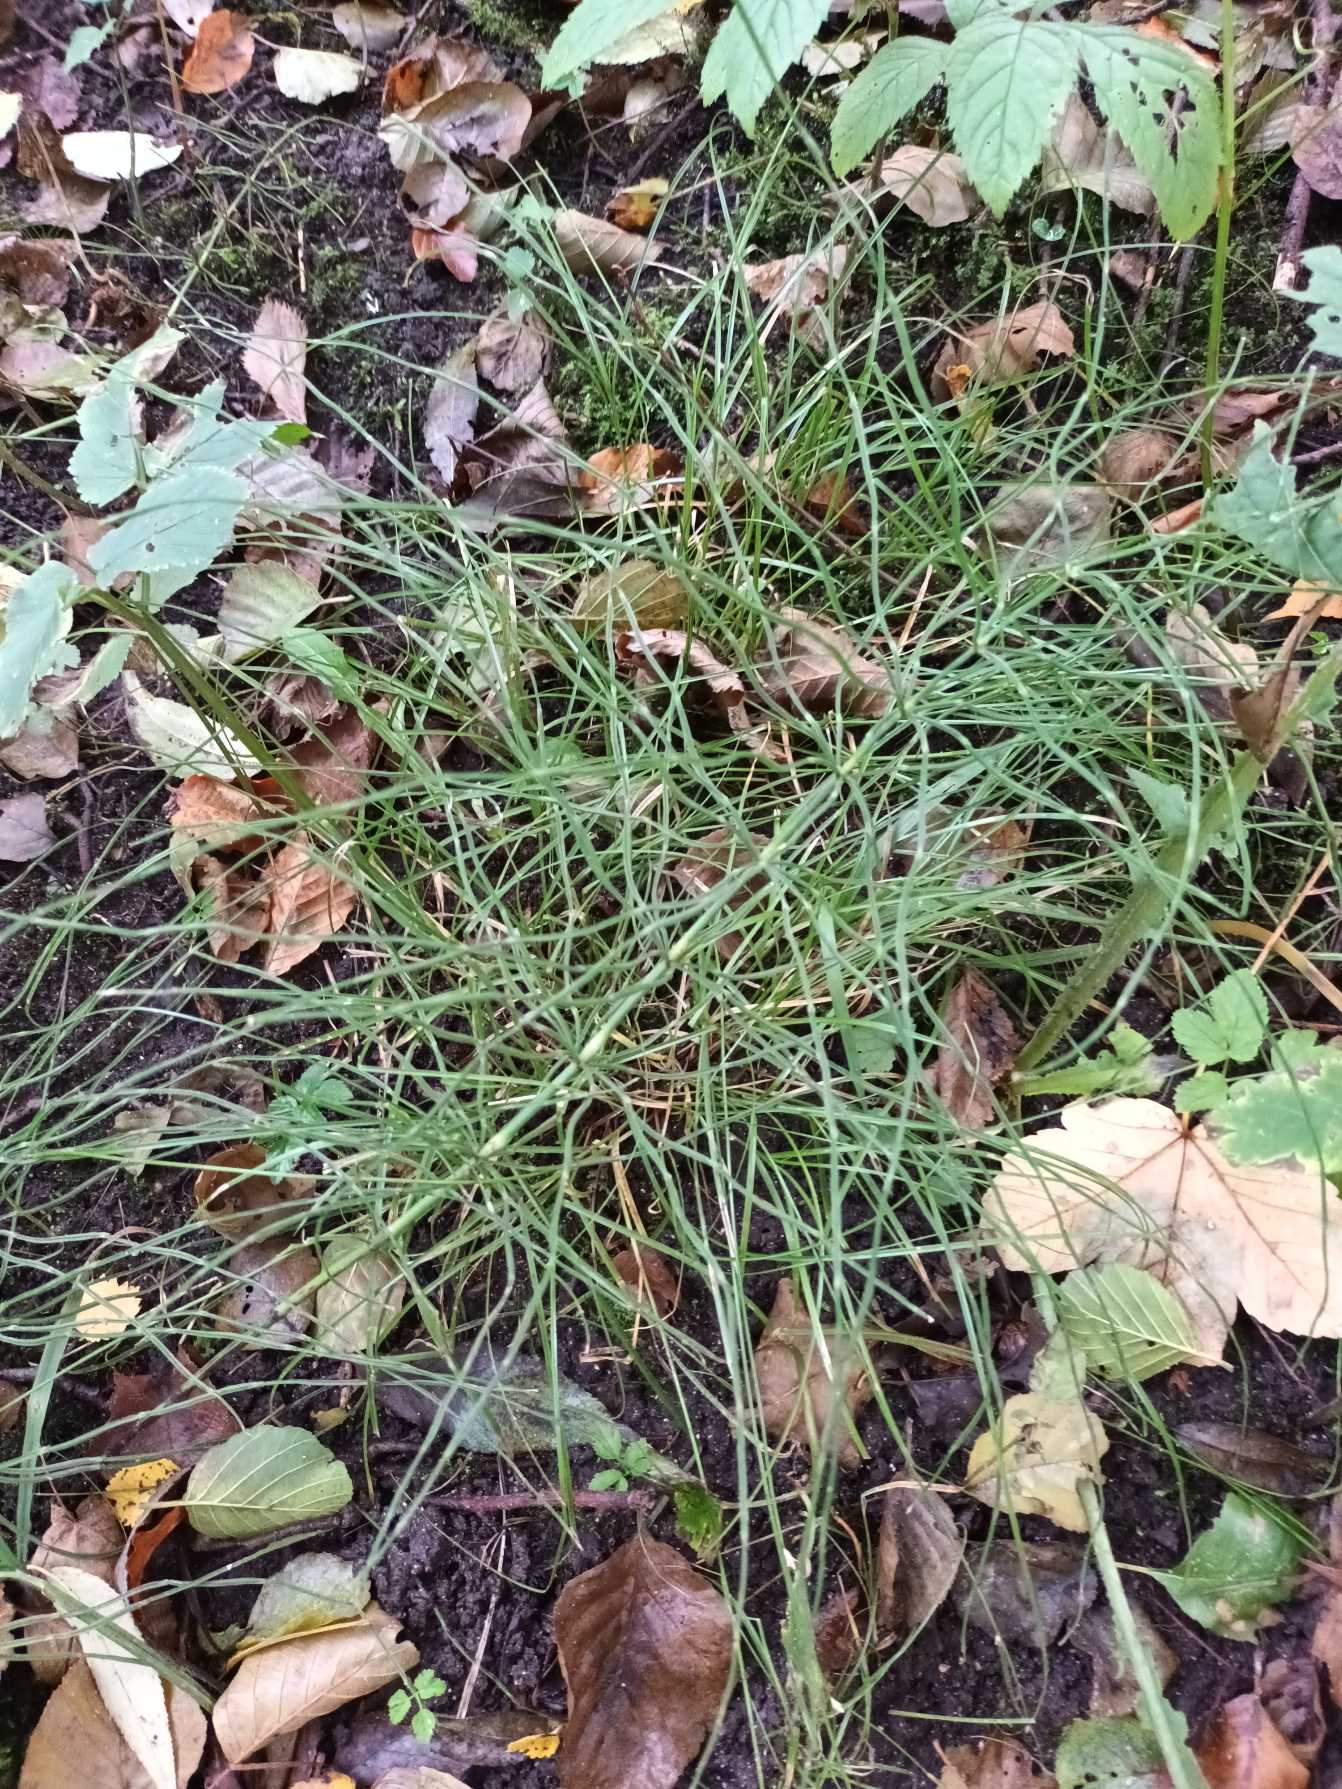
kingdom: Plantae
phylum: Tracheophyta
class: Polypodiopsida
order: Equisetales
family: Equisetaceae
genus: Equisetum
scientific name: Equisetum arvense
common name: Ager-padderok
